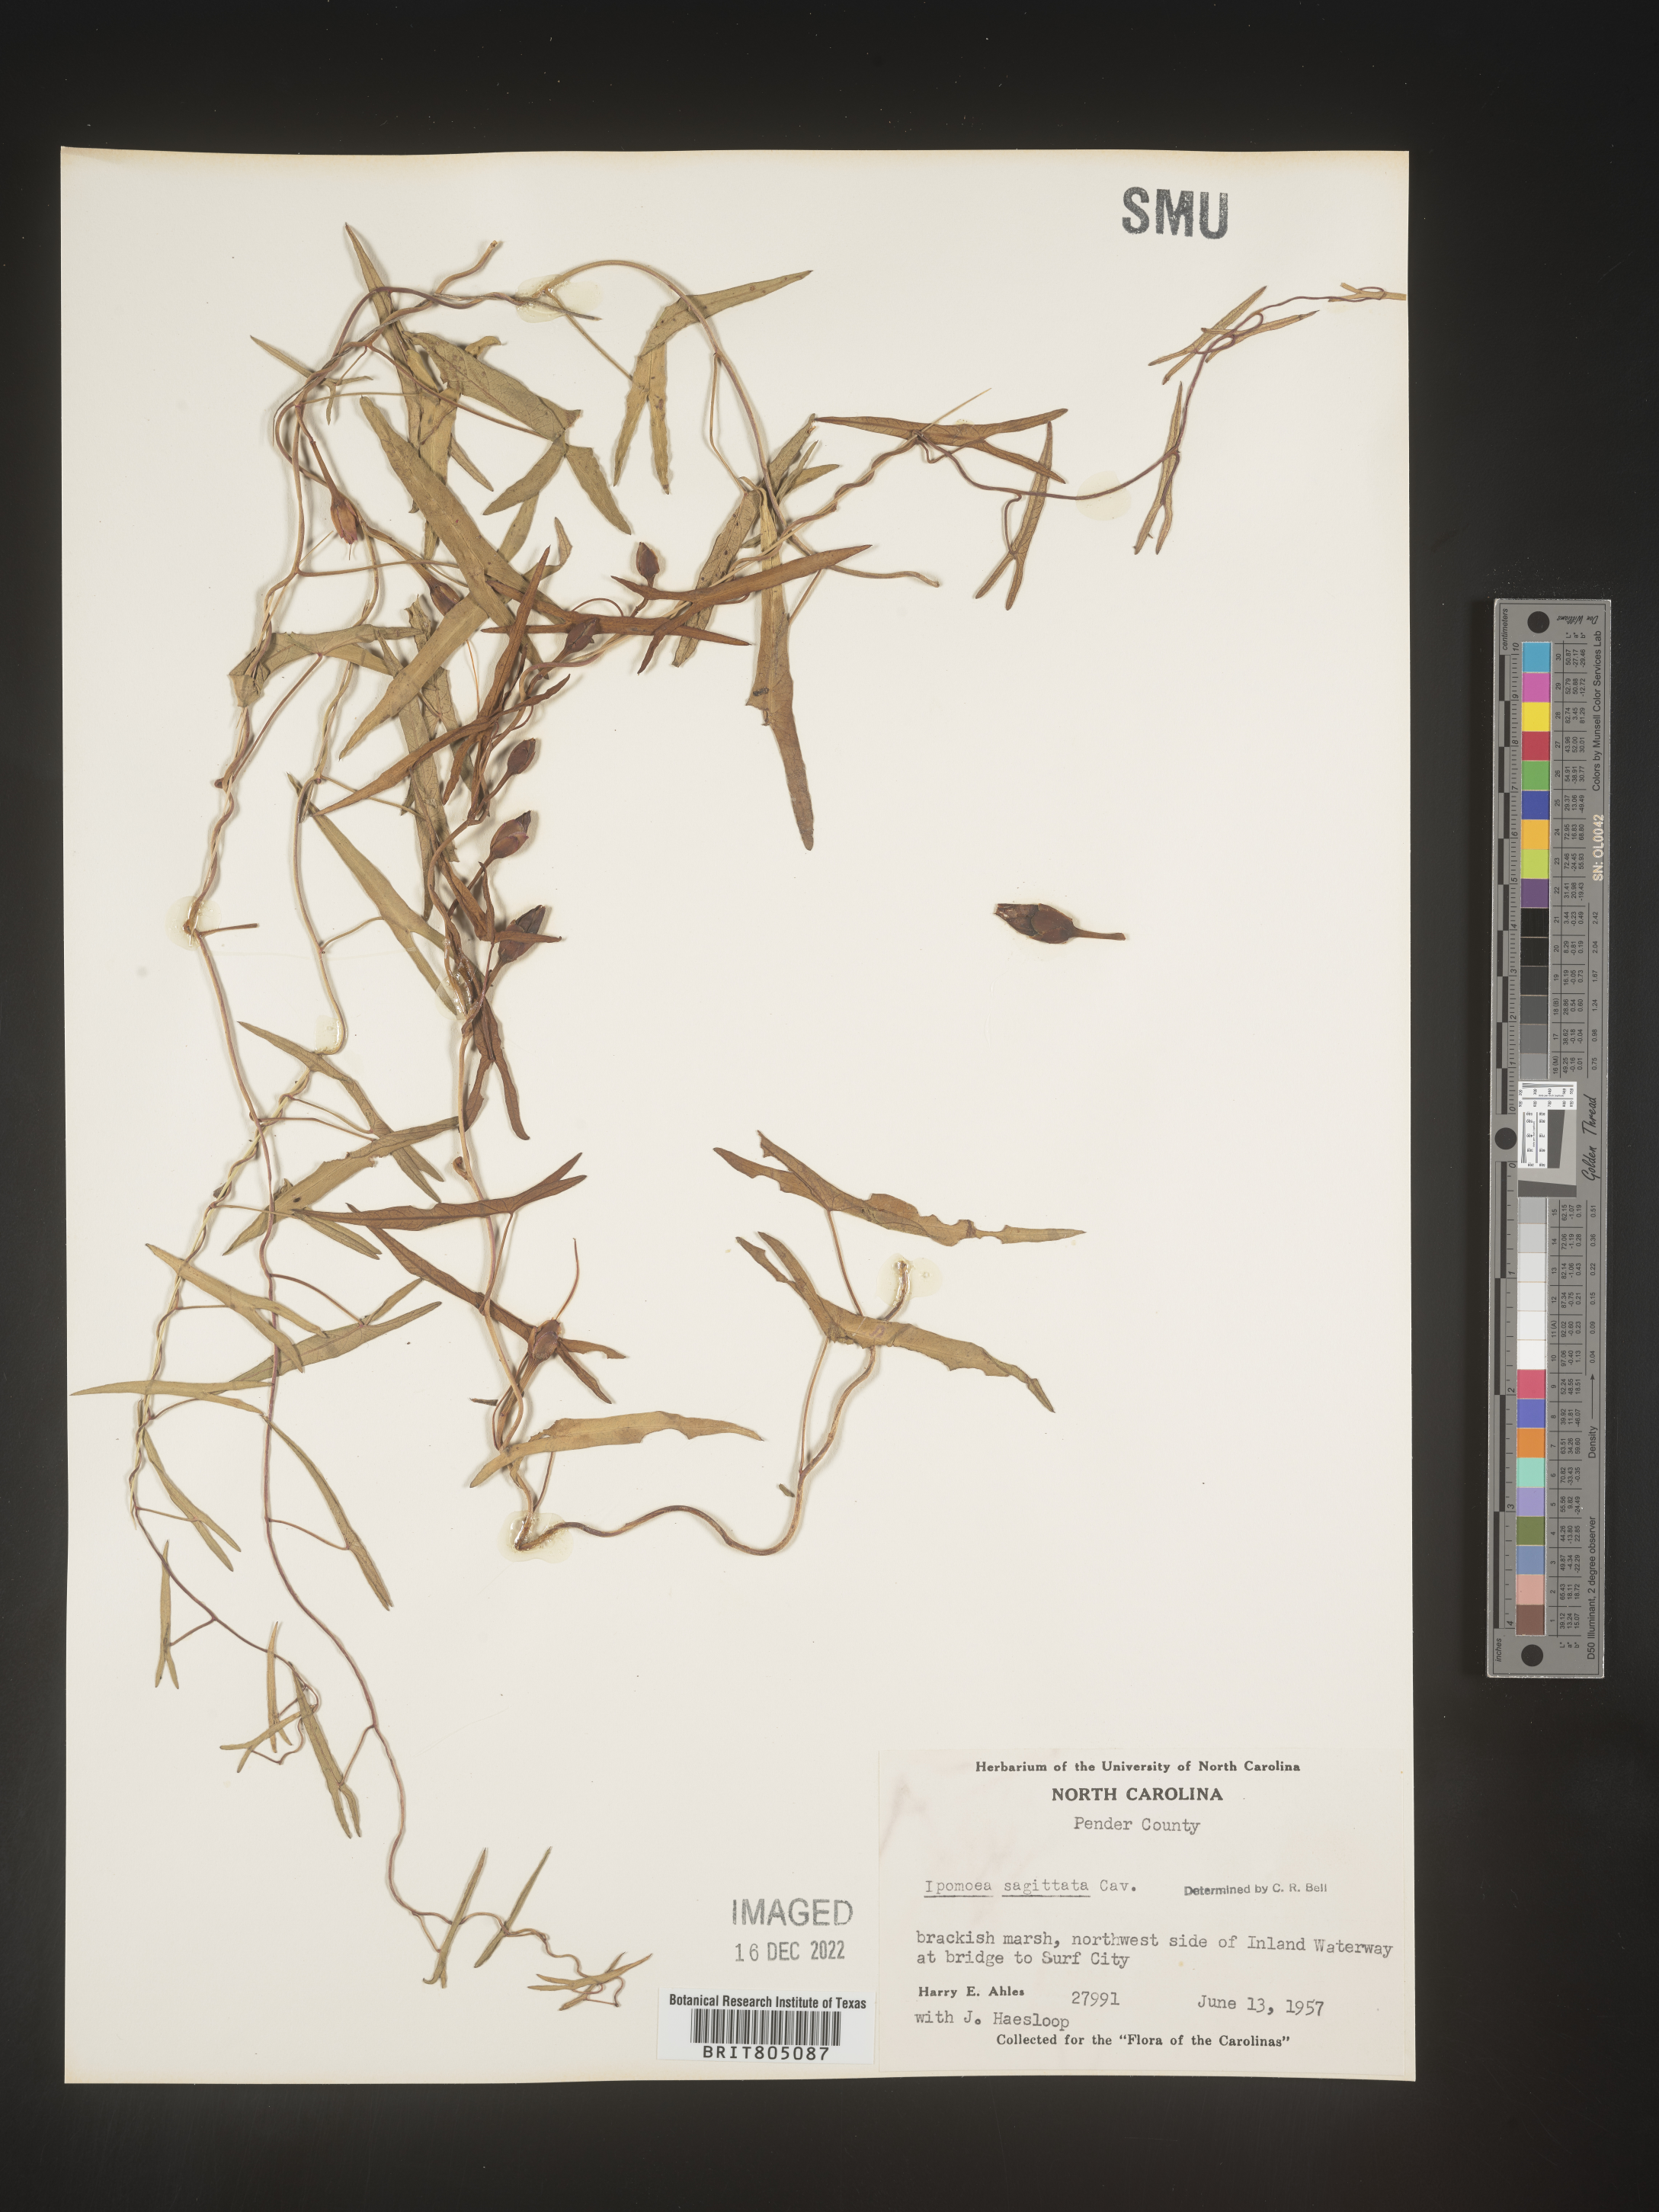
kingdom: Plantae
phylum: Tracheophyta
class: Magnoliopsida
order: Solanales
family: Convolvulaceae
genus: Ipomoea
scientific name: Ipomoea sinensis
